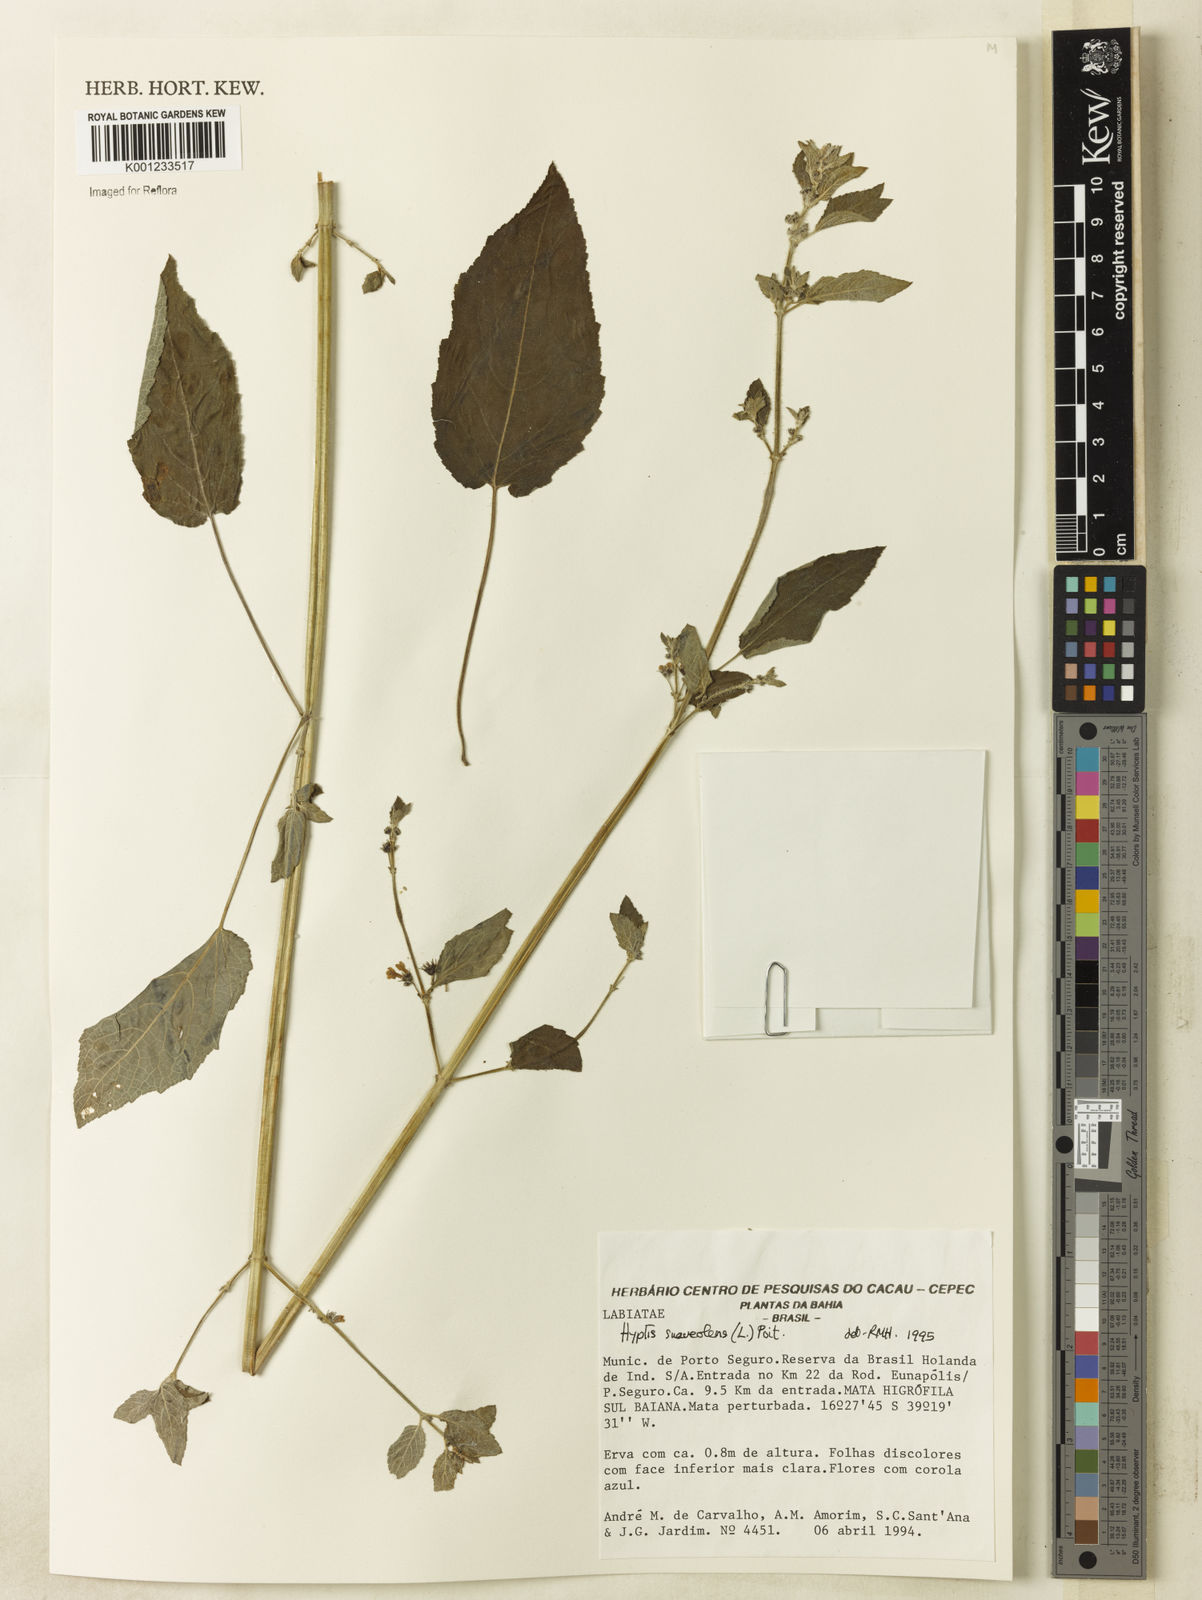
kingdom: Plantae
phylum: Tracheophyta
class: Magnoliopsida
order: Lamiales
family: Lamiaceae
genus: Mesosphaerum
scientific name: Mesosphaerum suaveolens
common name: Pignut
